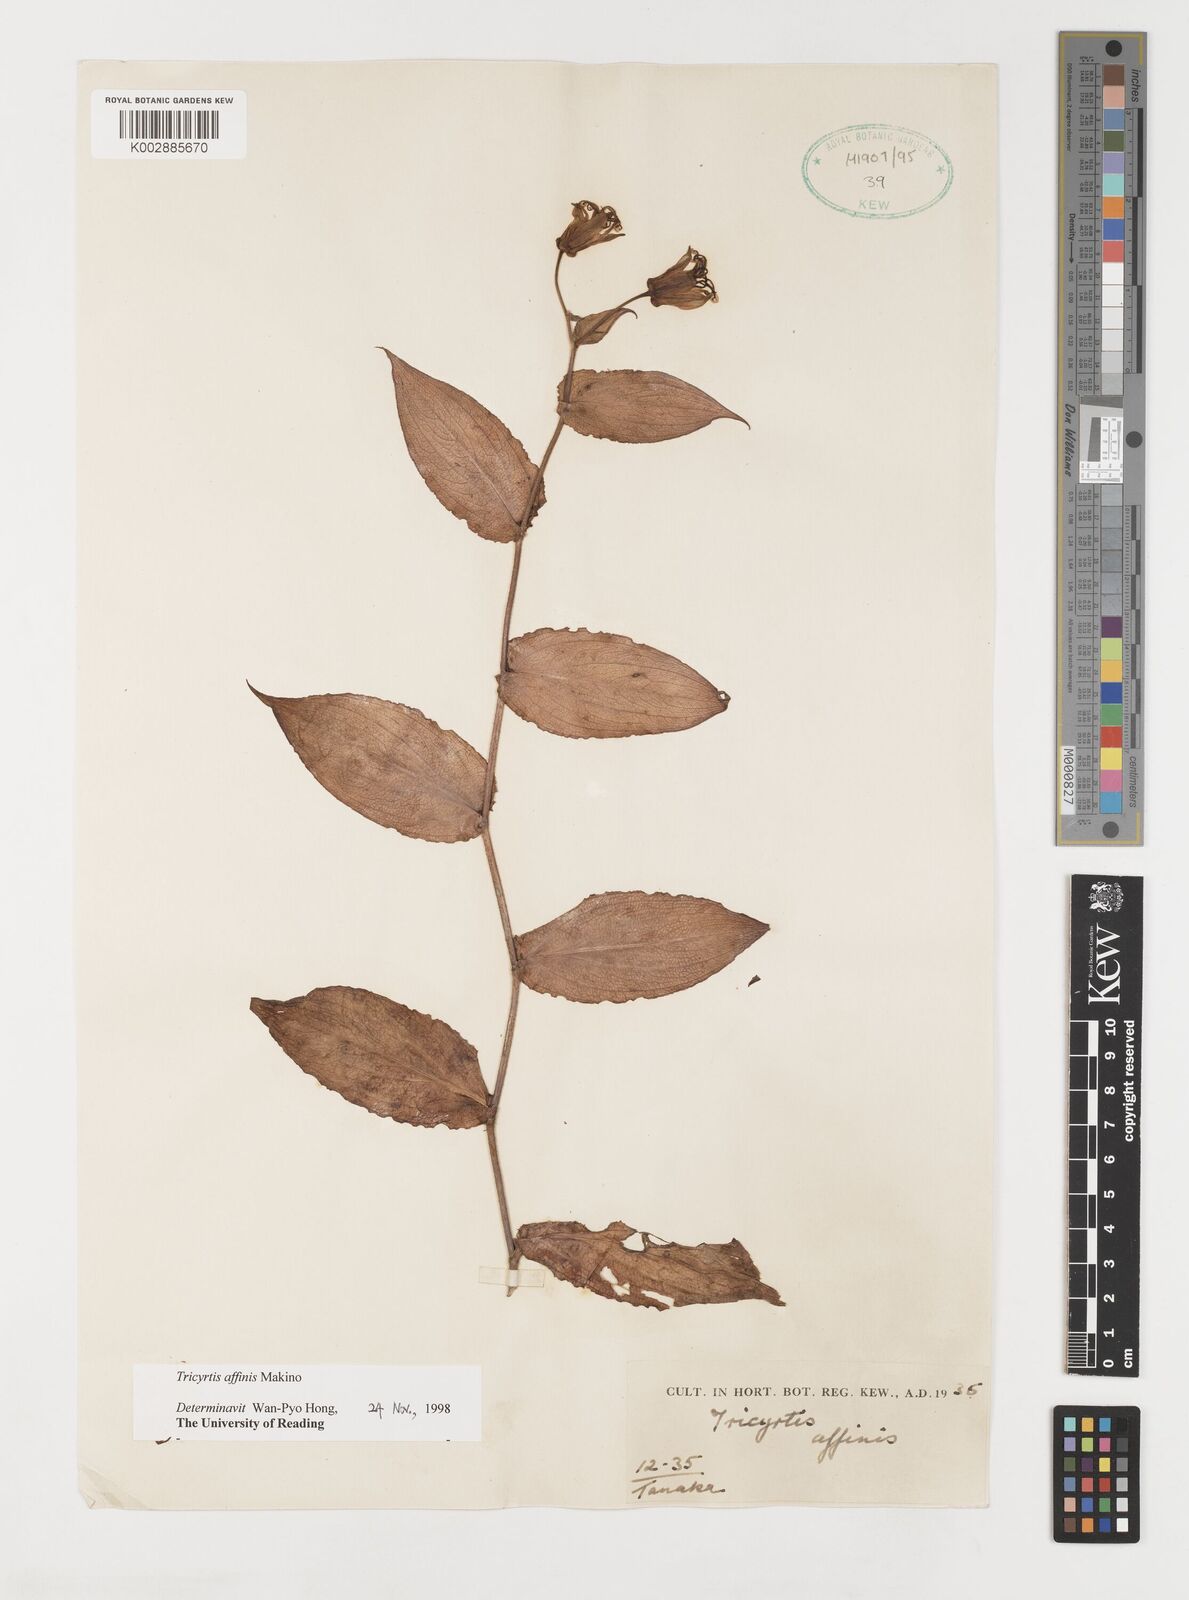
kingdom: Plantae
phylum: Tracheophyta
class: Liliopsida
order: Liliales
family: Liliaceae
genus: Tricyrtis
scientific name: Tricyrtis affinis
